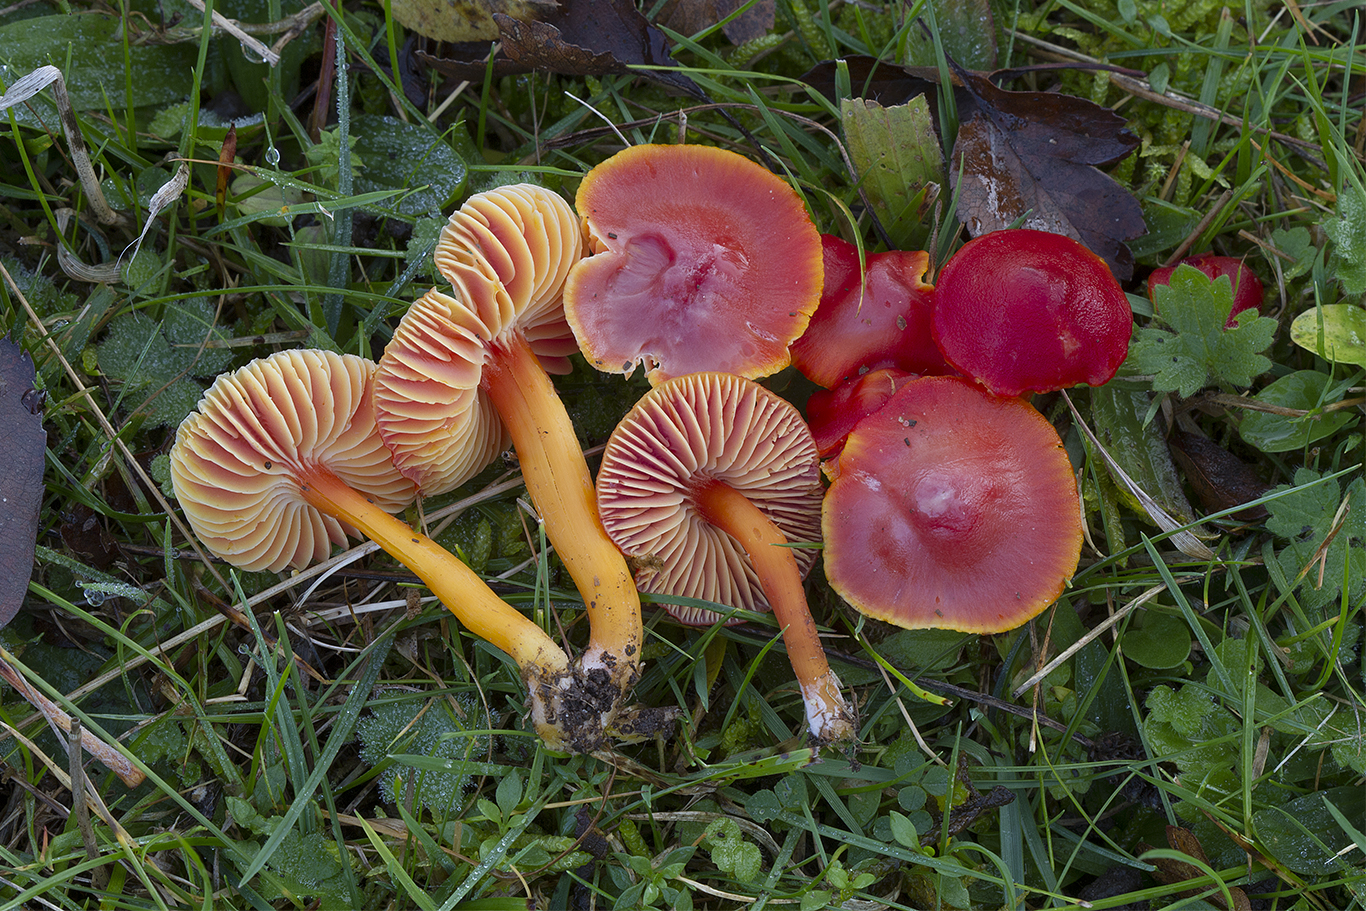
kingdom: Fungi
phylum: Basidiomycota
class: Agaricomycetes
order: Agaricales
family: Hygrophoraceae
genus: Hygrocybe
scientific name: Hygrocybe coccinea
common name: cinnober-vokshat
